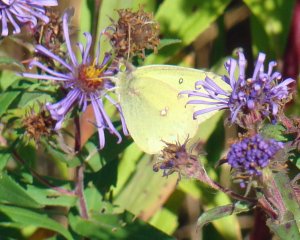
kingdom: Animalia
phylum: Arthropoda
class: Insecta
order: Lepidoptera
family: Pieridae
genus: Colias
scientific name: Colias philodice
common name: Clouded Sulphur
